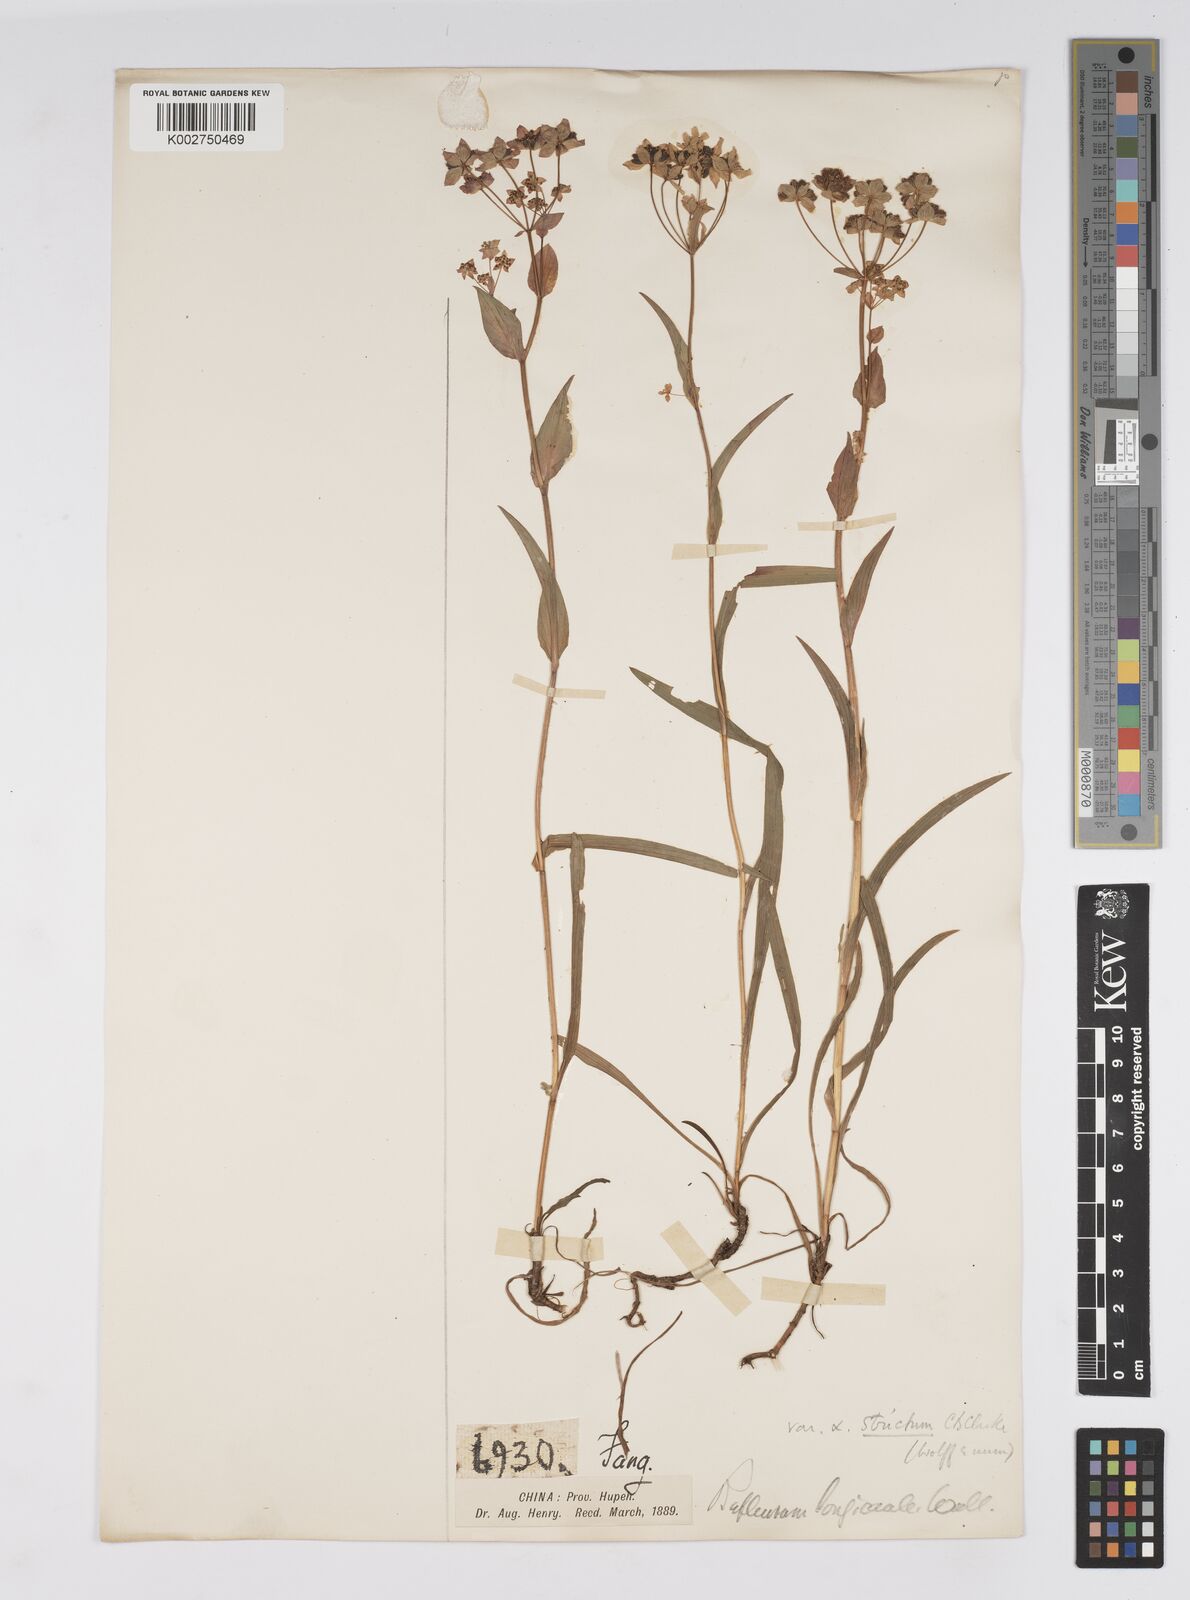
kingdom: Plantae
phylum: Tracheophyta
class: Magnoliopsida
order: Apiales
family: Apiaceae
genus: Bupleurum
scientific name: Bupleurum longicaule
